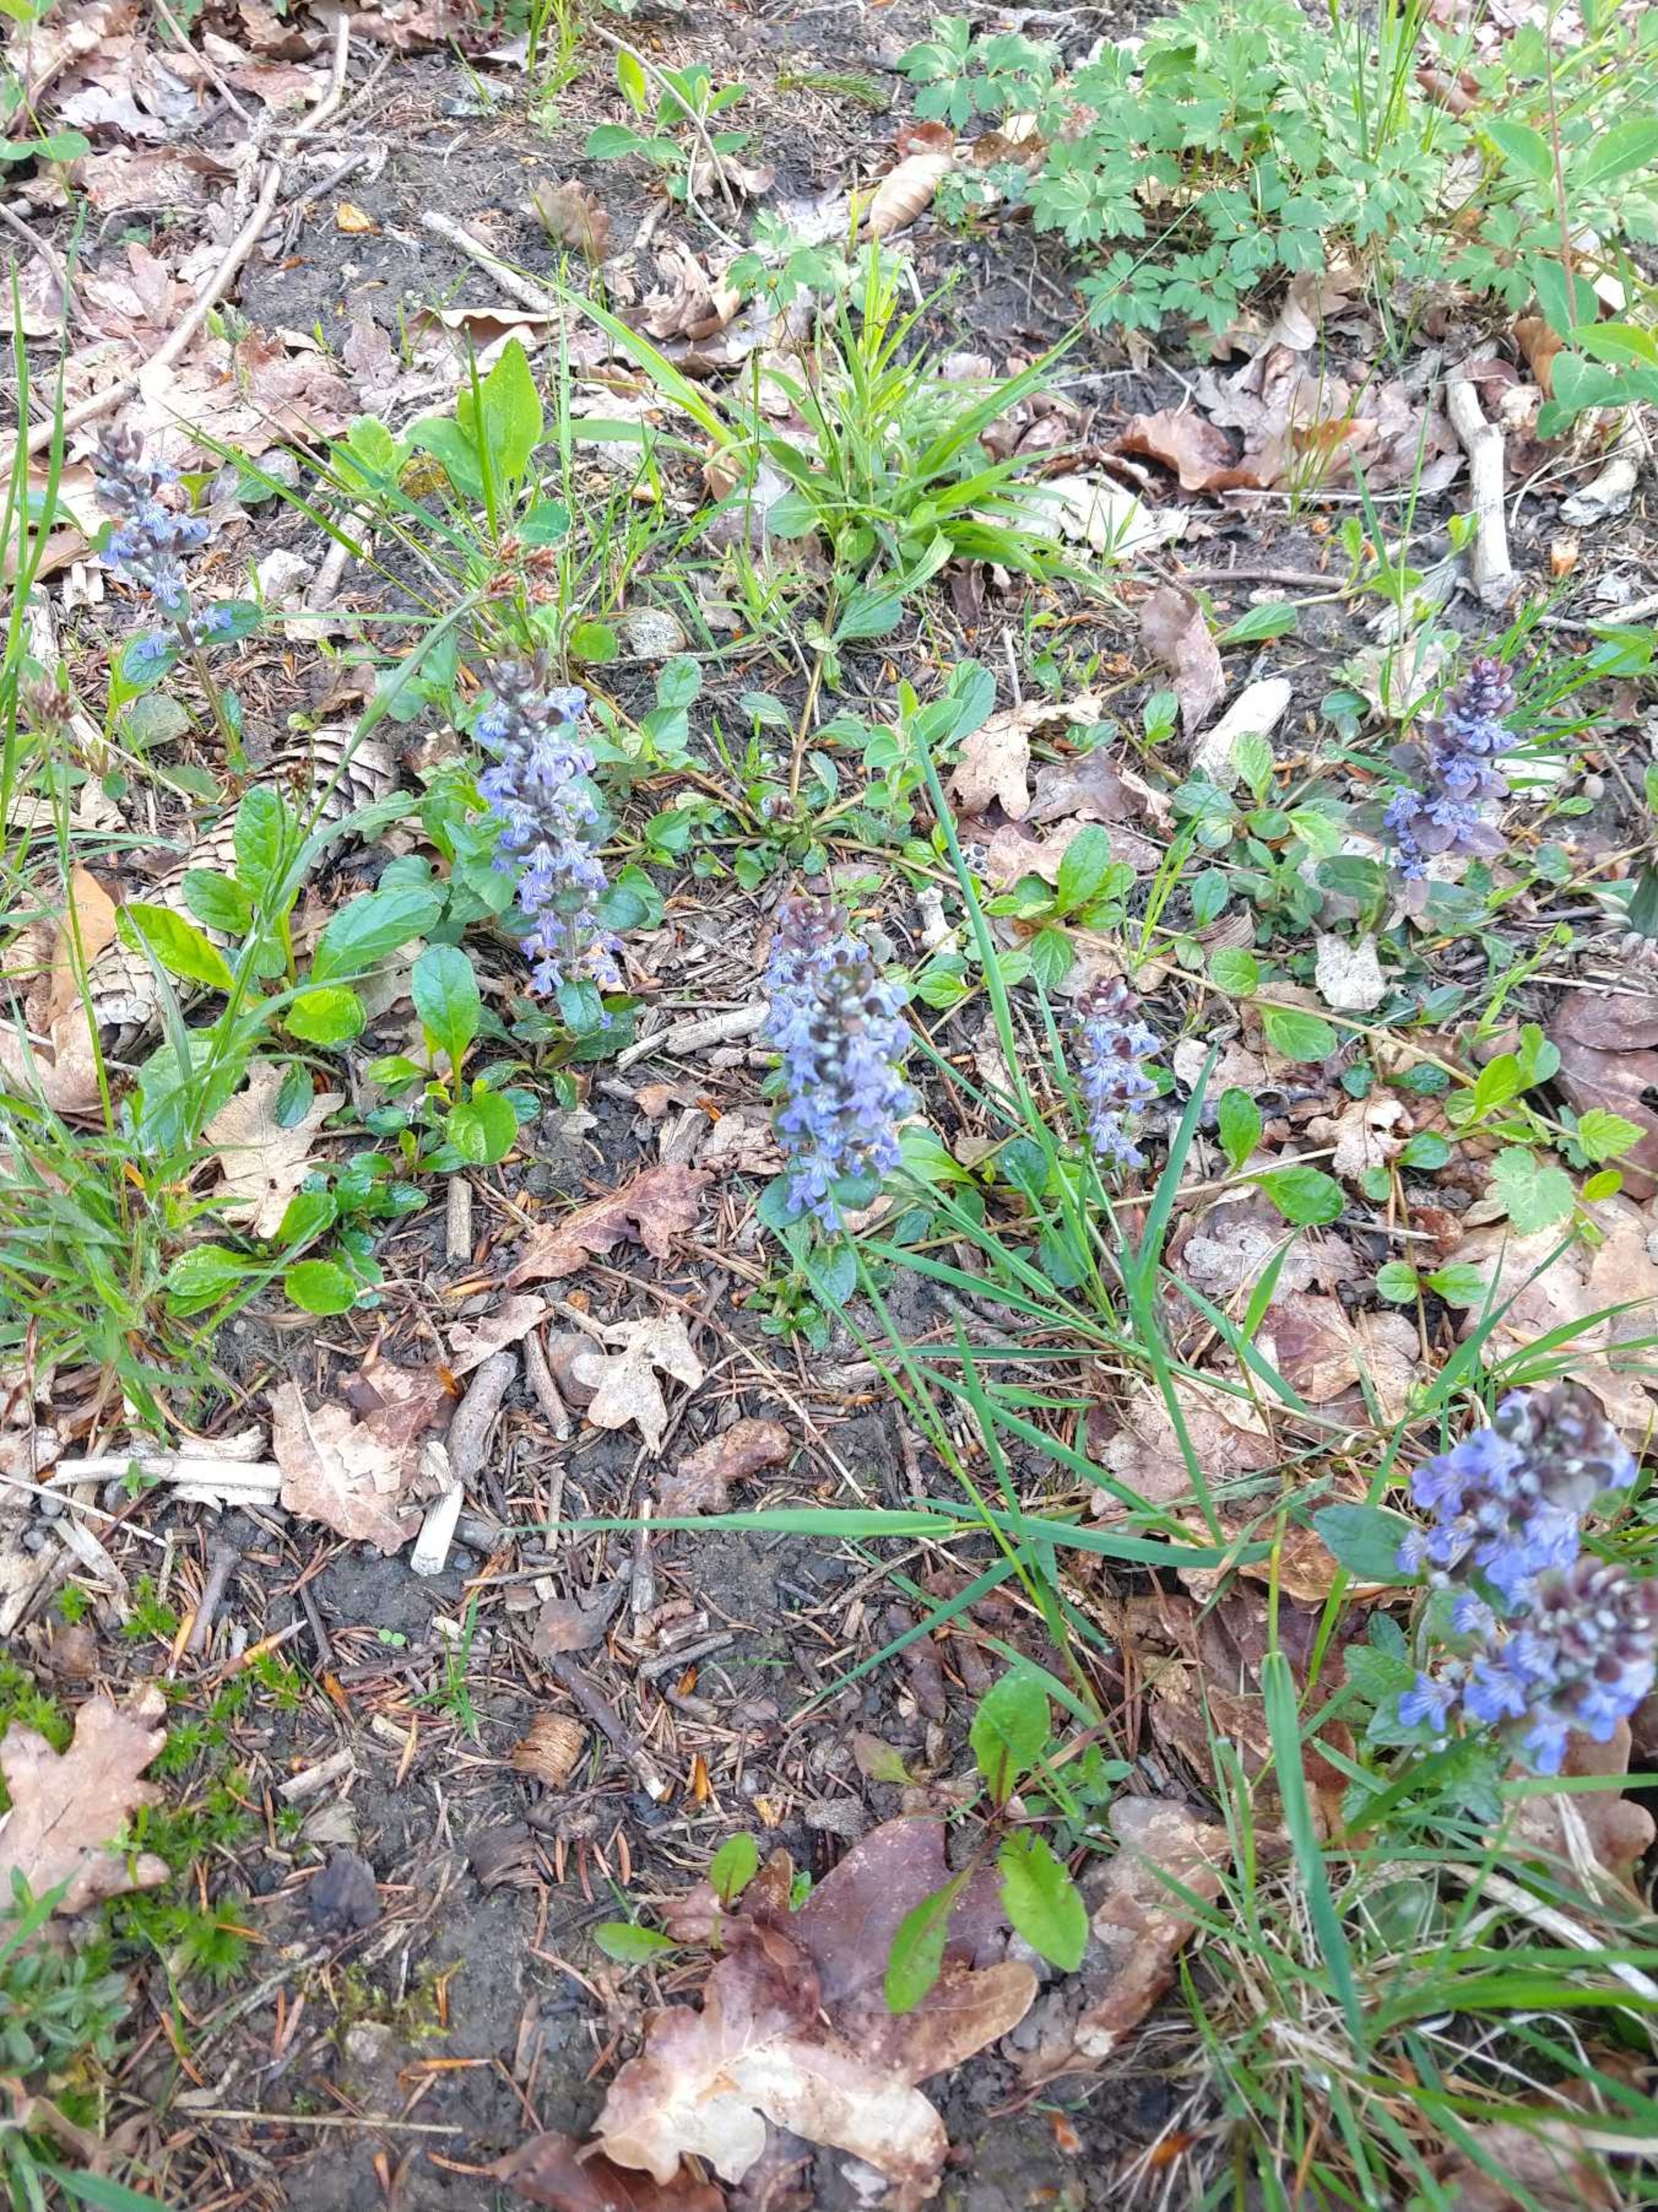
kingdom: Plantae
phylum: Tracheophyta
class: Magnoliopsida
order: Lamiales
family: Lamiaceae
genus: Ajuga
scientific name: Ajuga reptans
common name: Krybende læbeløs
